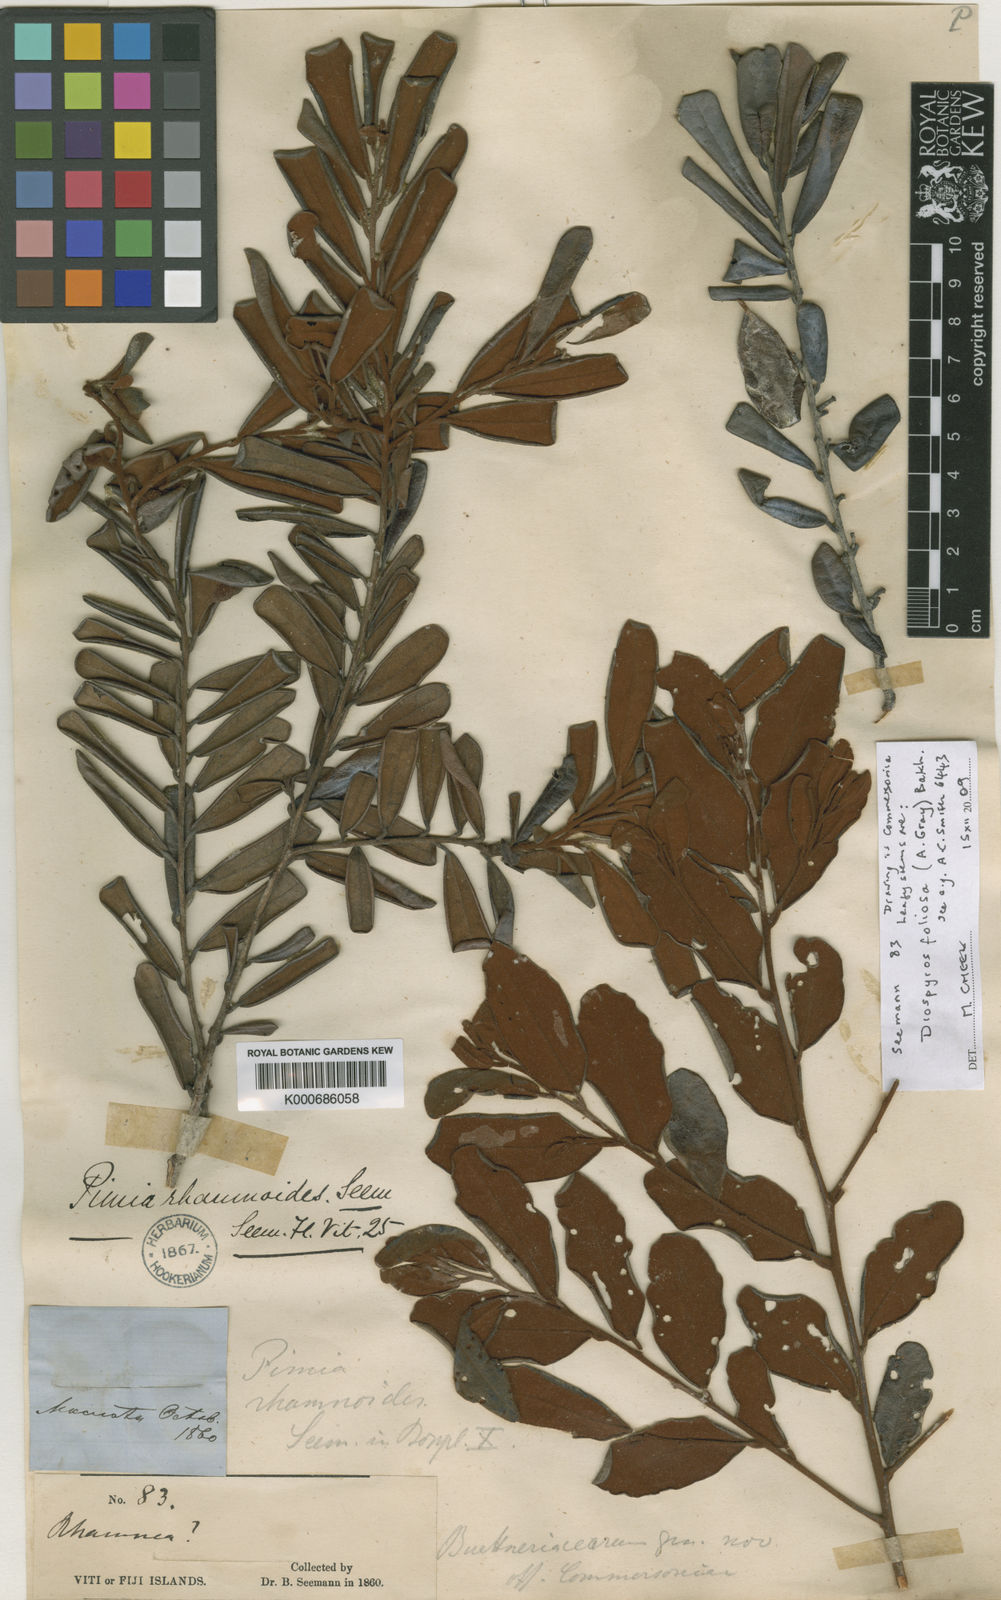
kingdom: Plantae
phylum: Tracheophyta
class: Magnoliopsida
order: Malvales
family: Malvaceae
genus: Commersonia
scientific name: Commersonia bartramia
